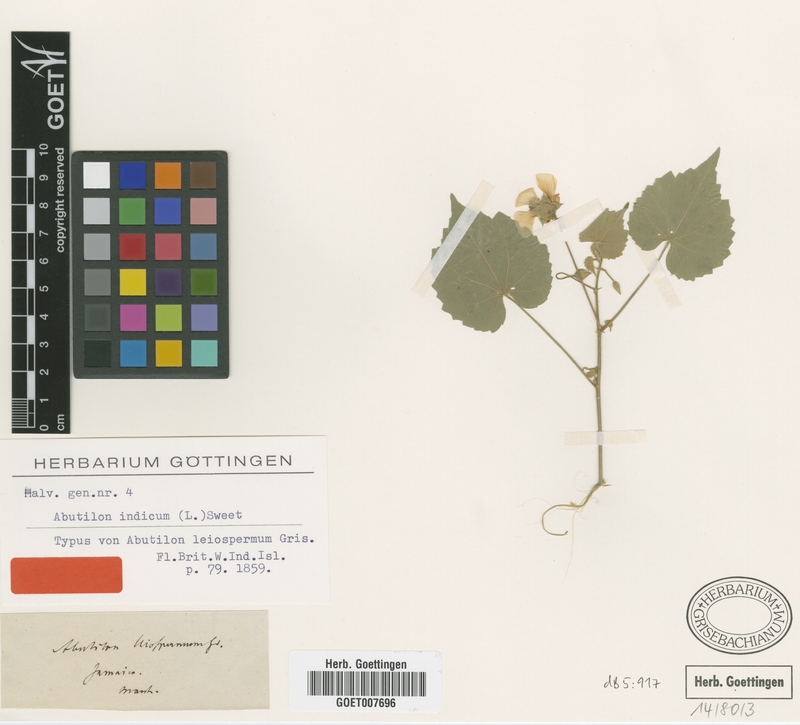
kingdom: Plantae
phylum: Tracheophyta
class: Magnoliopsida
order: Malvales
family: Malvaceae
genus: Abutilon
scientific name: Abutilon indicum
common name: Indian abutilon
